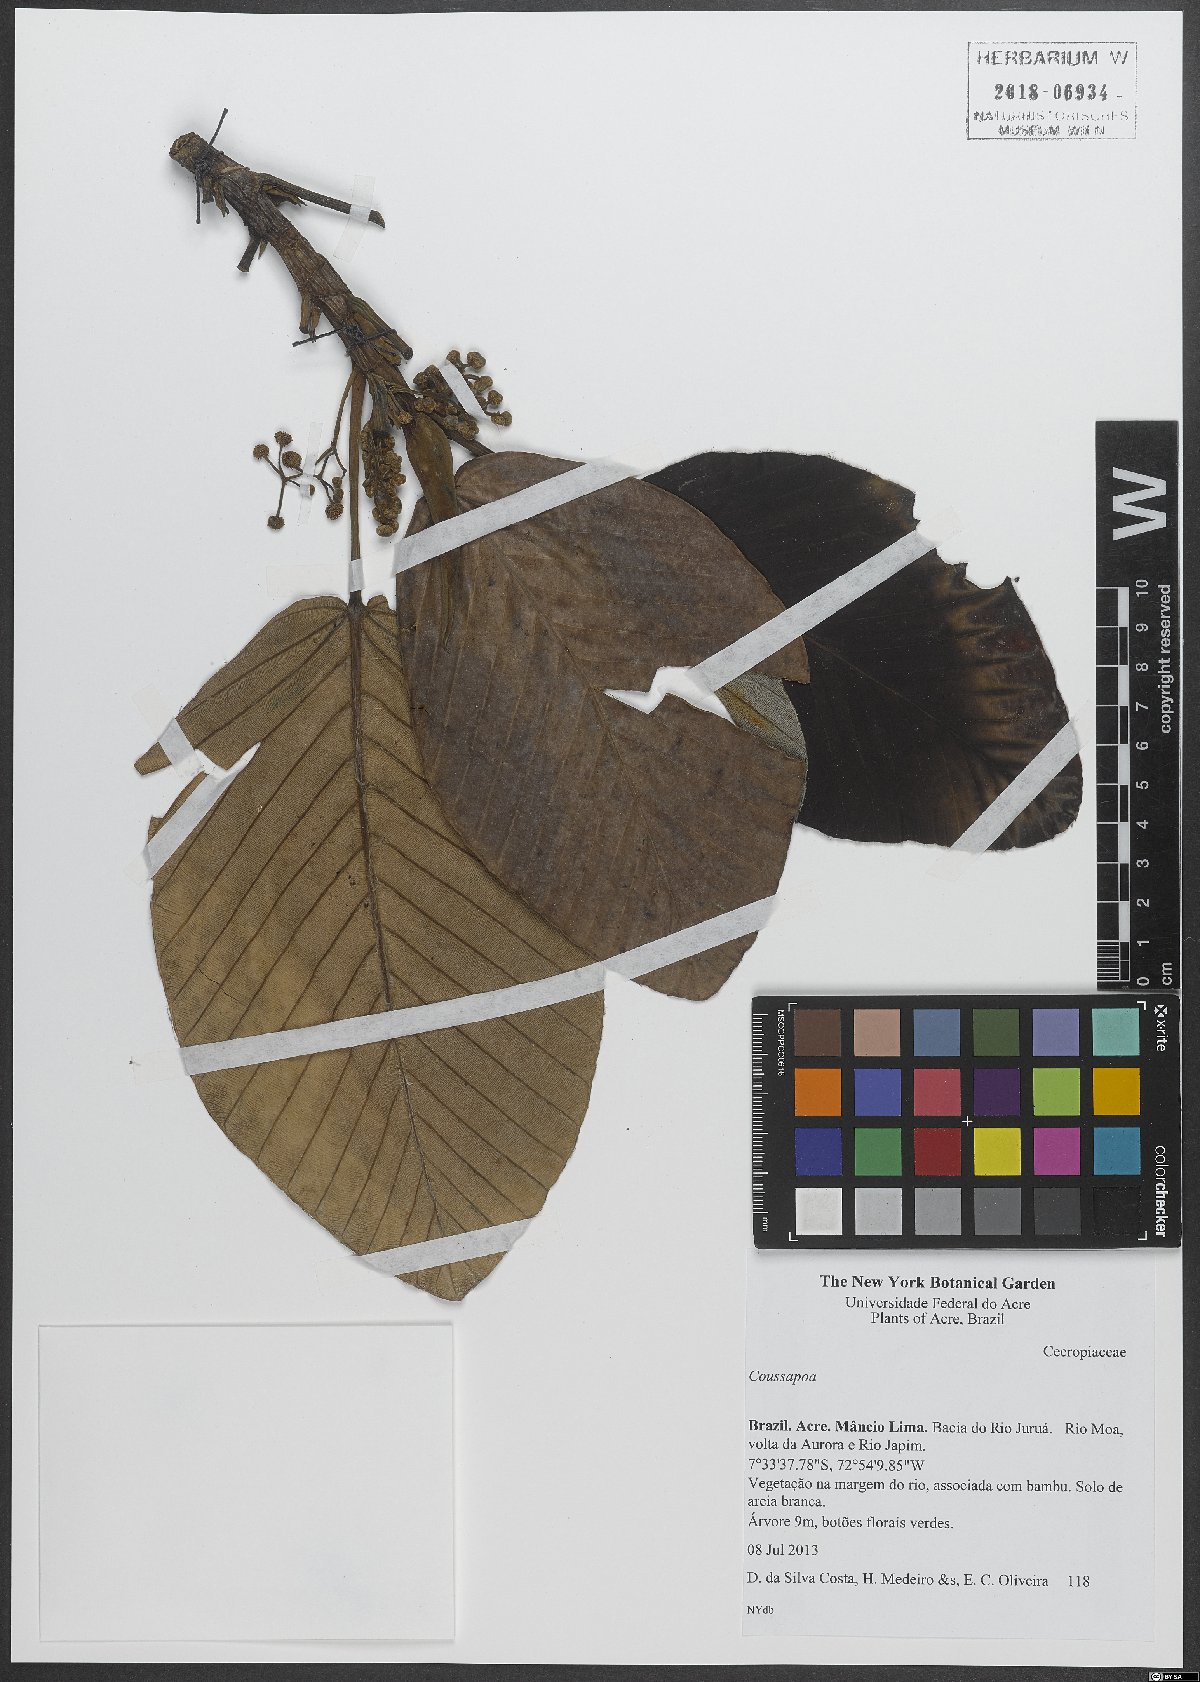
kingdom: Plantae
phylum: Tracheophyta
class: Magnoliopsida
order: Rosales
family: Urticaceae
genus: Coussapoa
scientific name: Coussapoa
